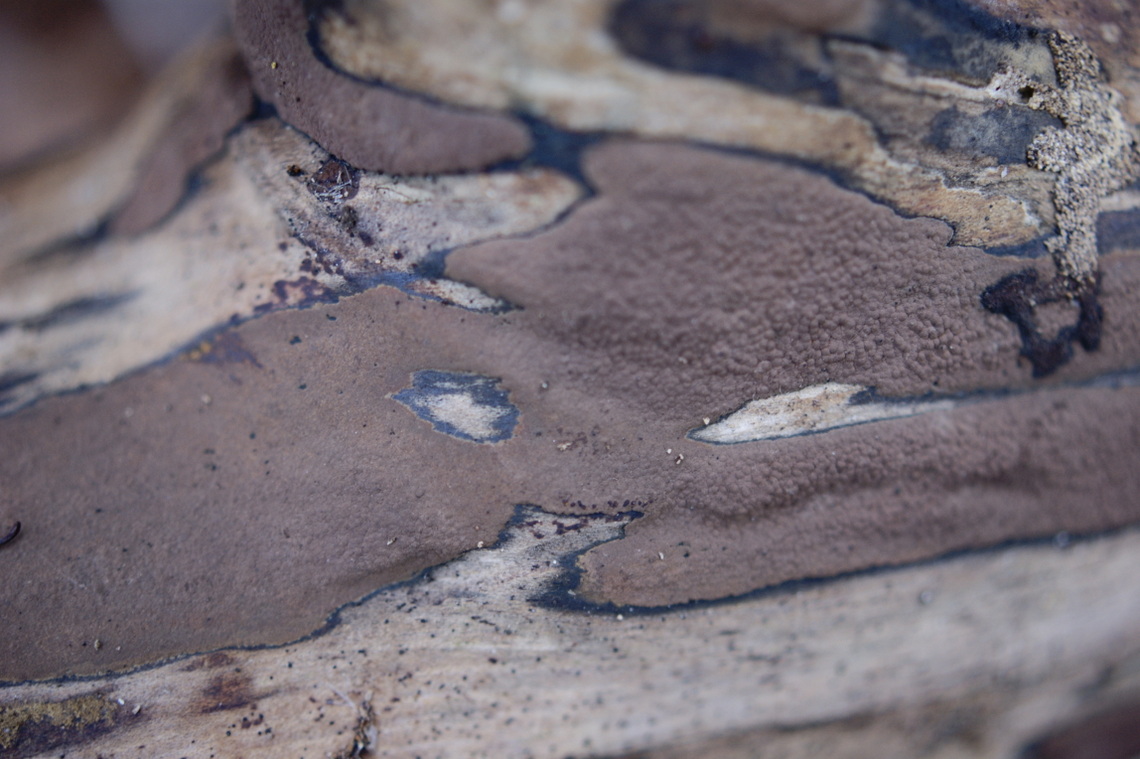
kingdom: Fungi
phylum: Ascomycota
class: Sordariomycetes
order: Xylariales
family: Hypoxylaceae
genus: Hypoxylon
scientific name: Hypoxylon petriniae
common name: nedsænket kulbær
